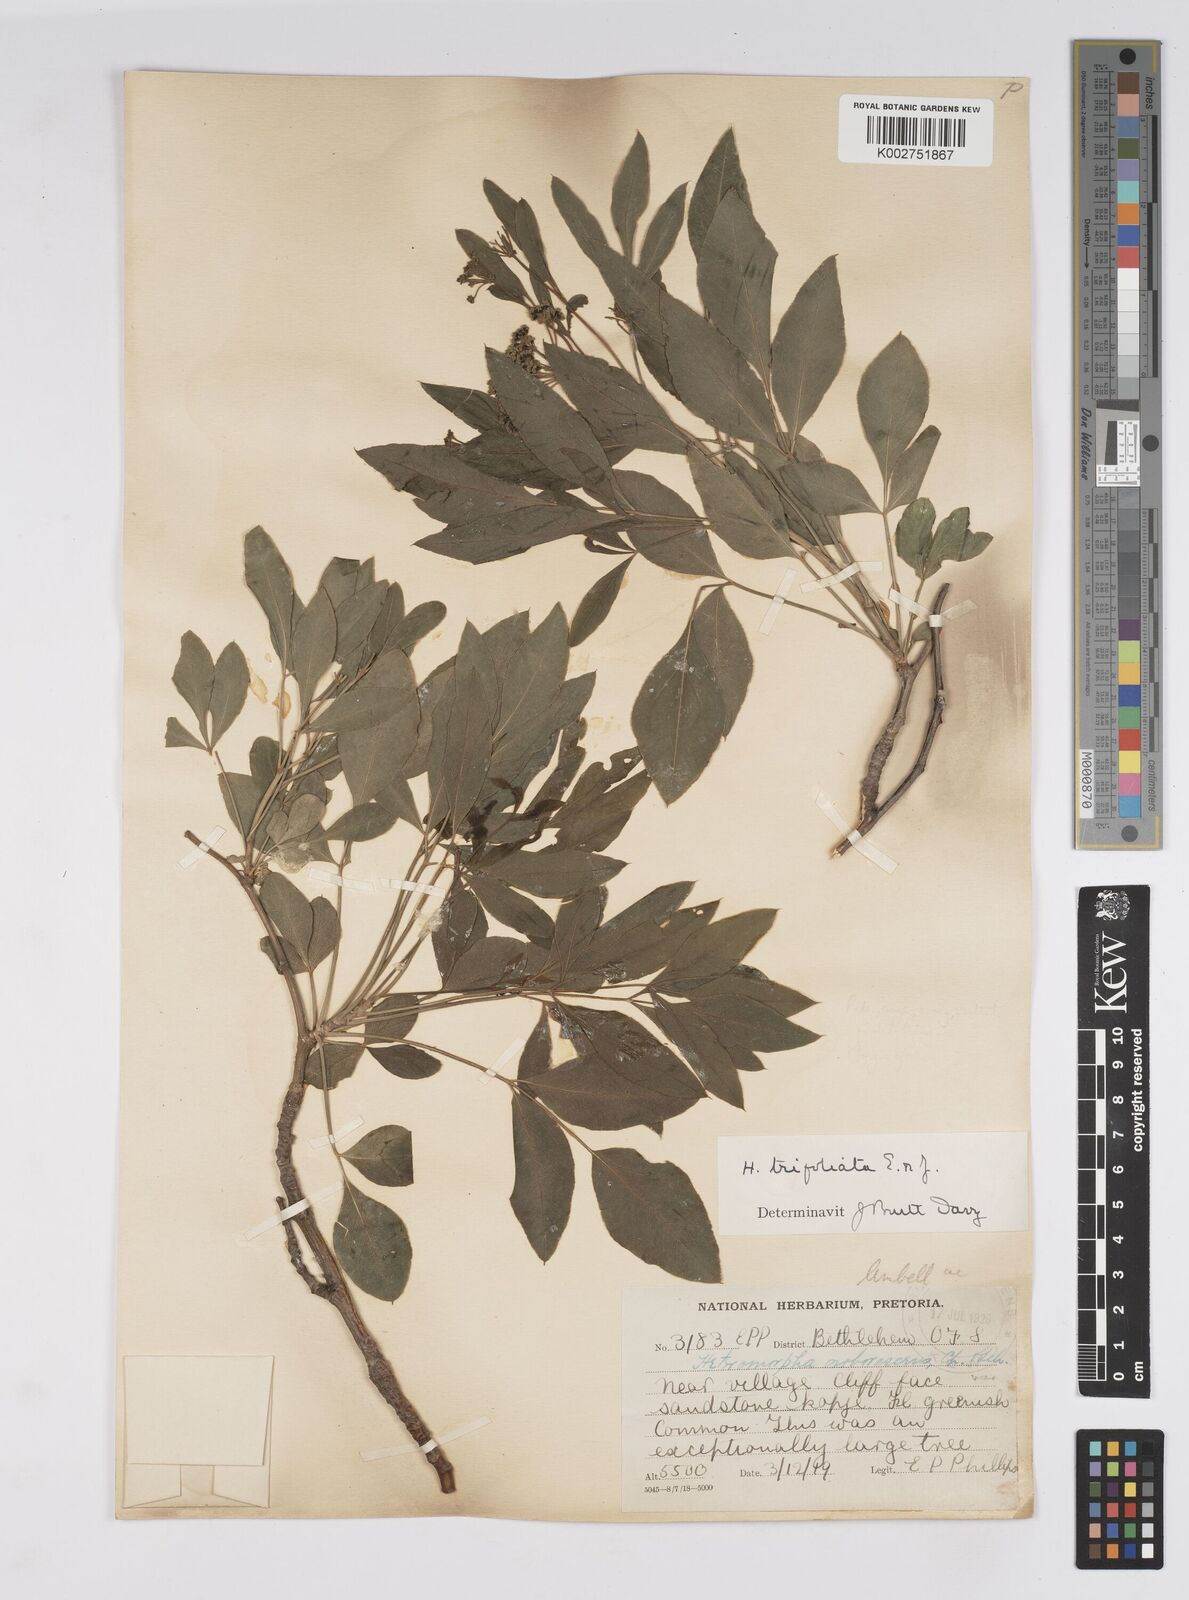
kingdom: Plantae
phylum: Tracheophyta
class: Magnoliopsida
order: Apiales
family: Apiaceae
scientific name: Apiaceae
